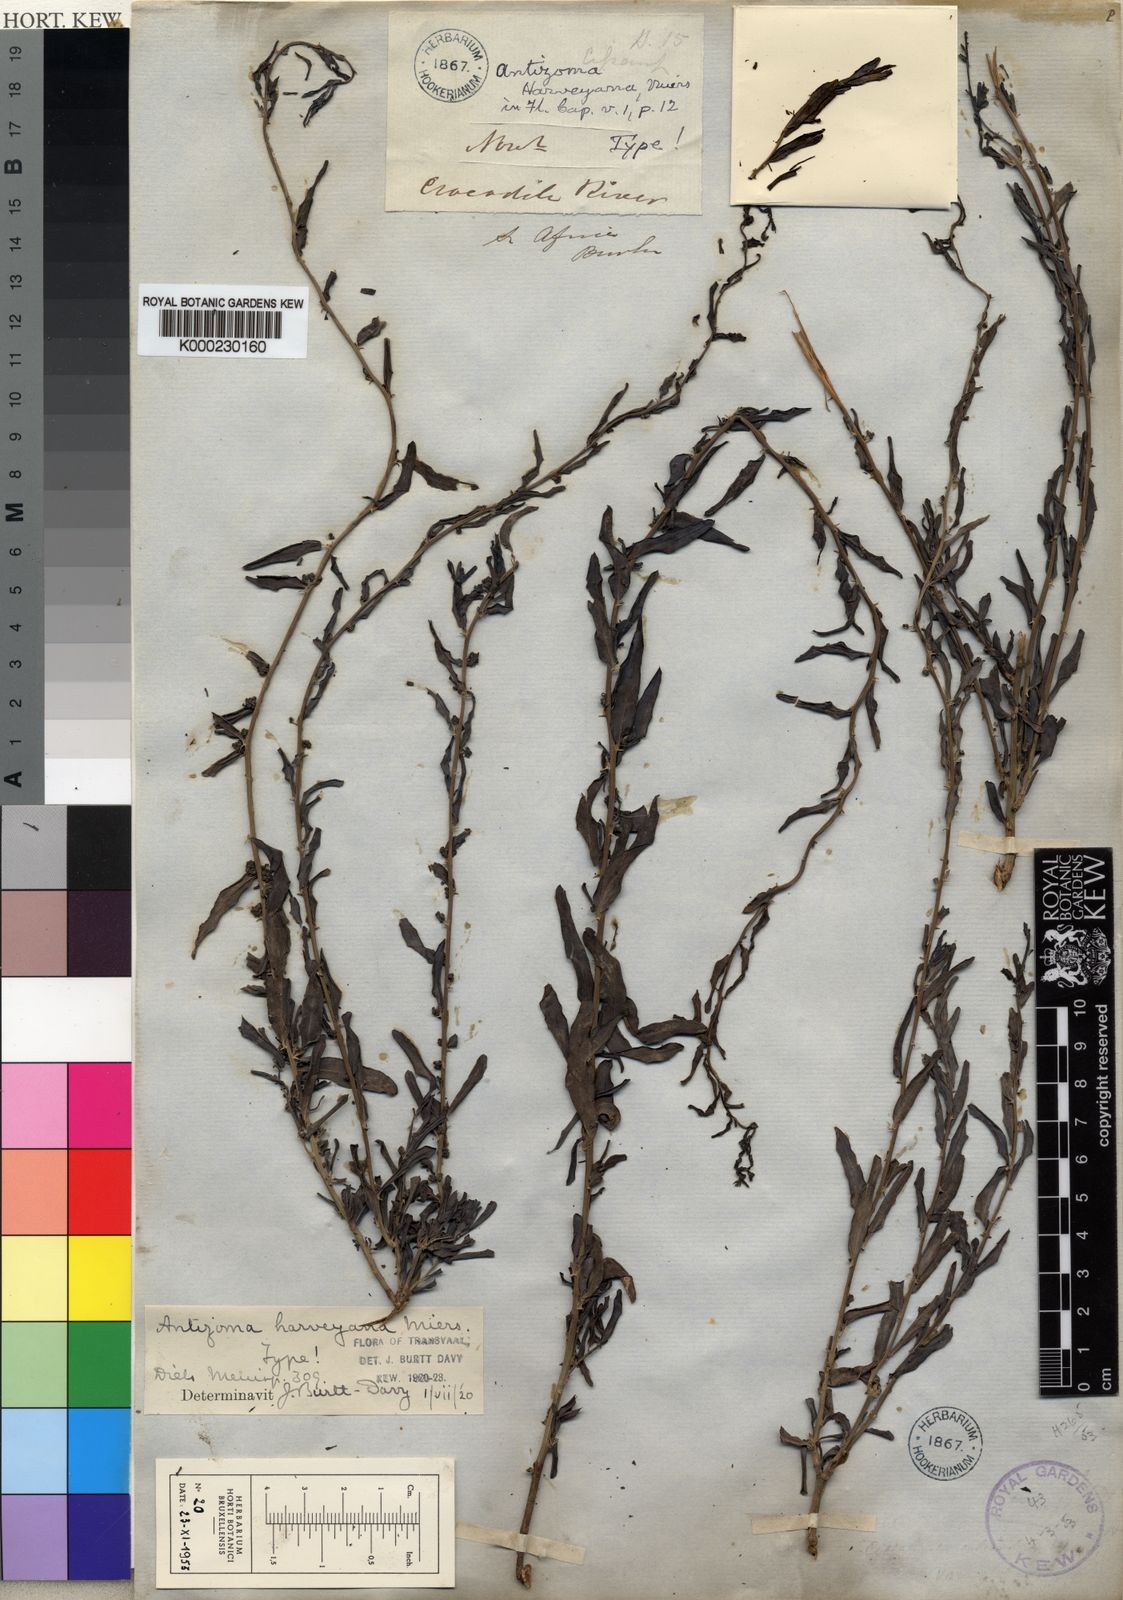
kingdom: Plantae
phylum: Tracheophyta
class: Magnoliopsida
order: Ranunculales
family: Menispermaceae
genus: Antizoma
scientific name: Antizoma
